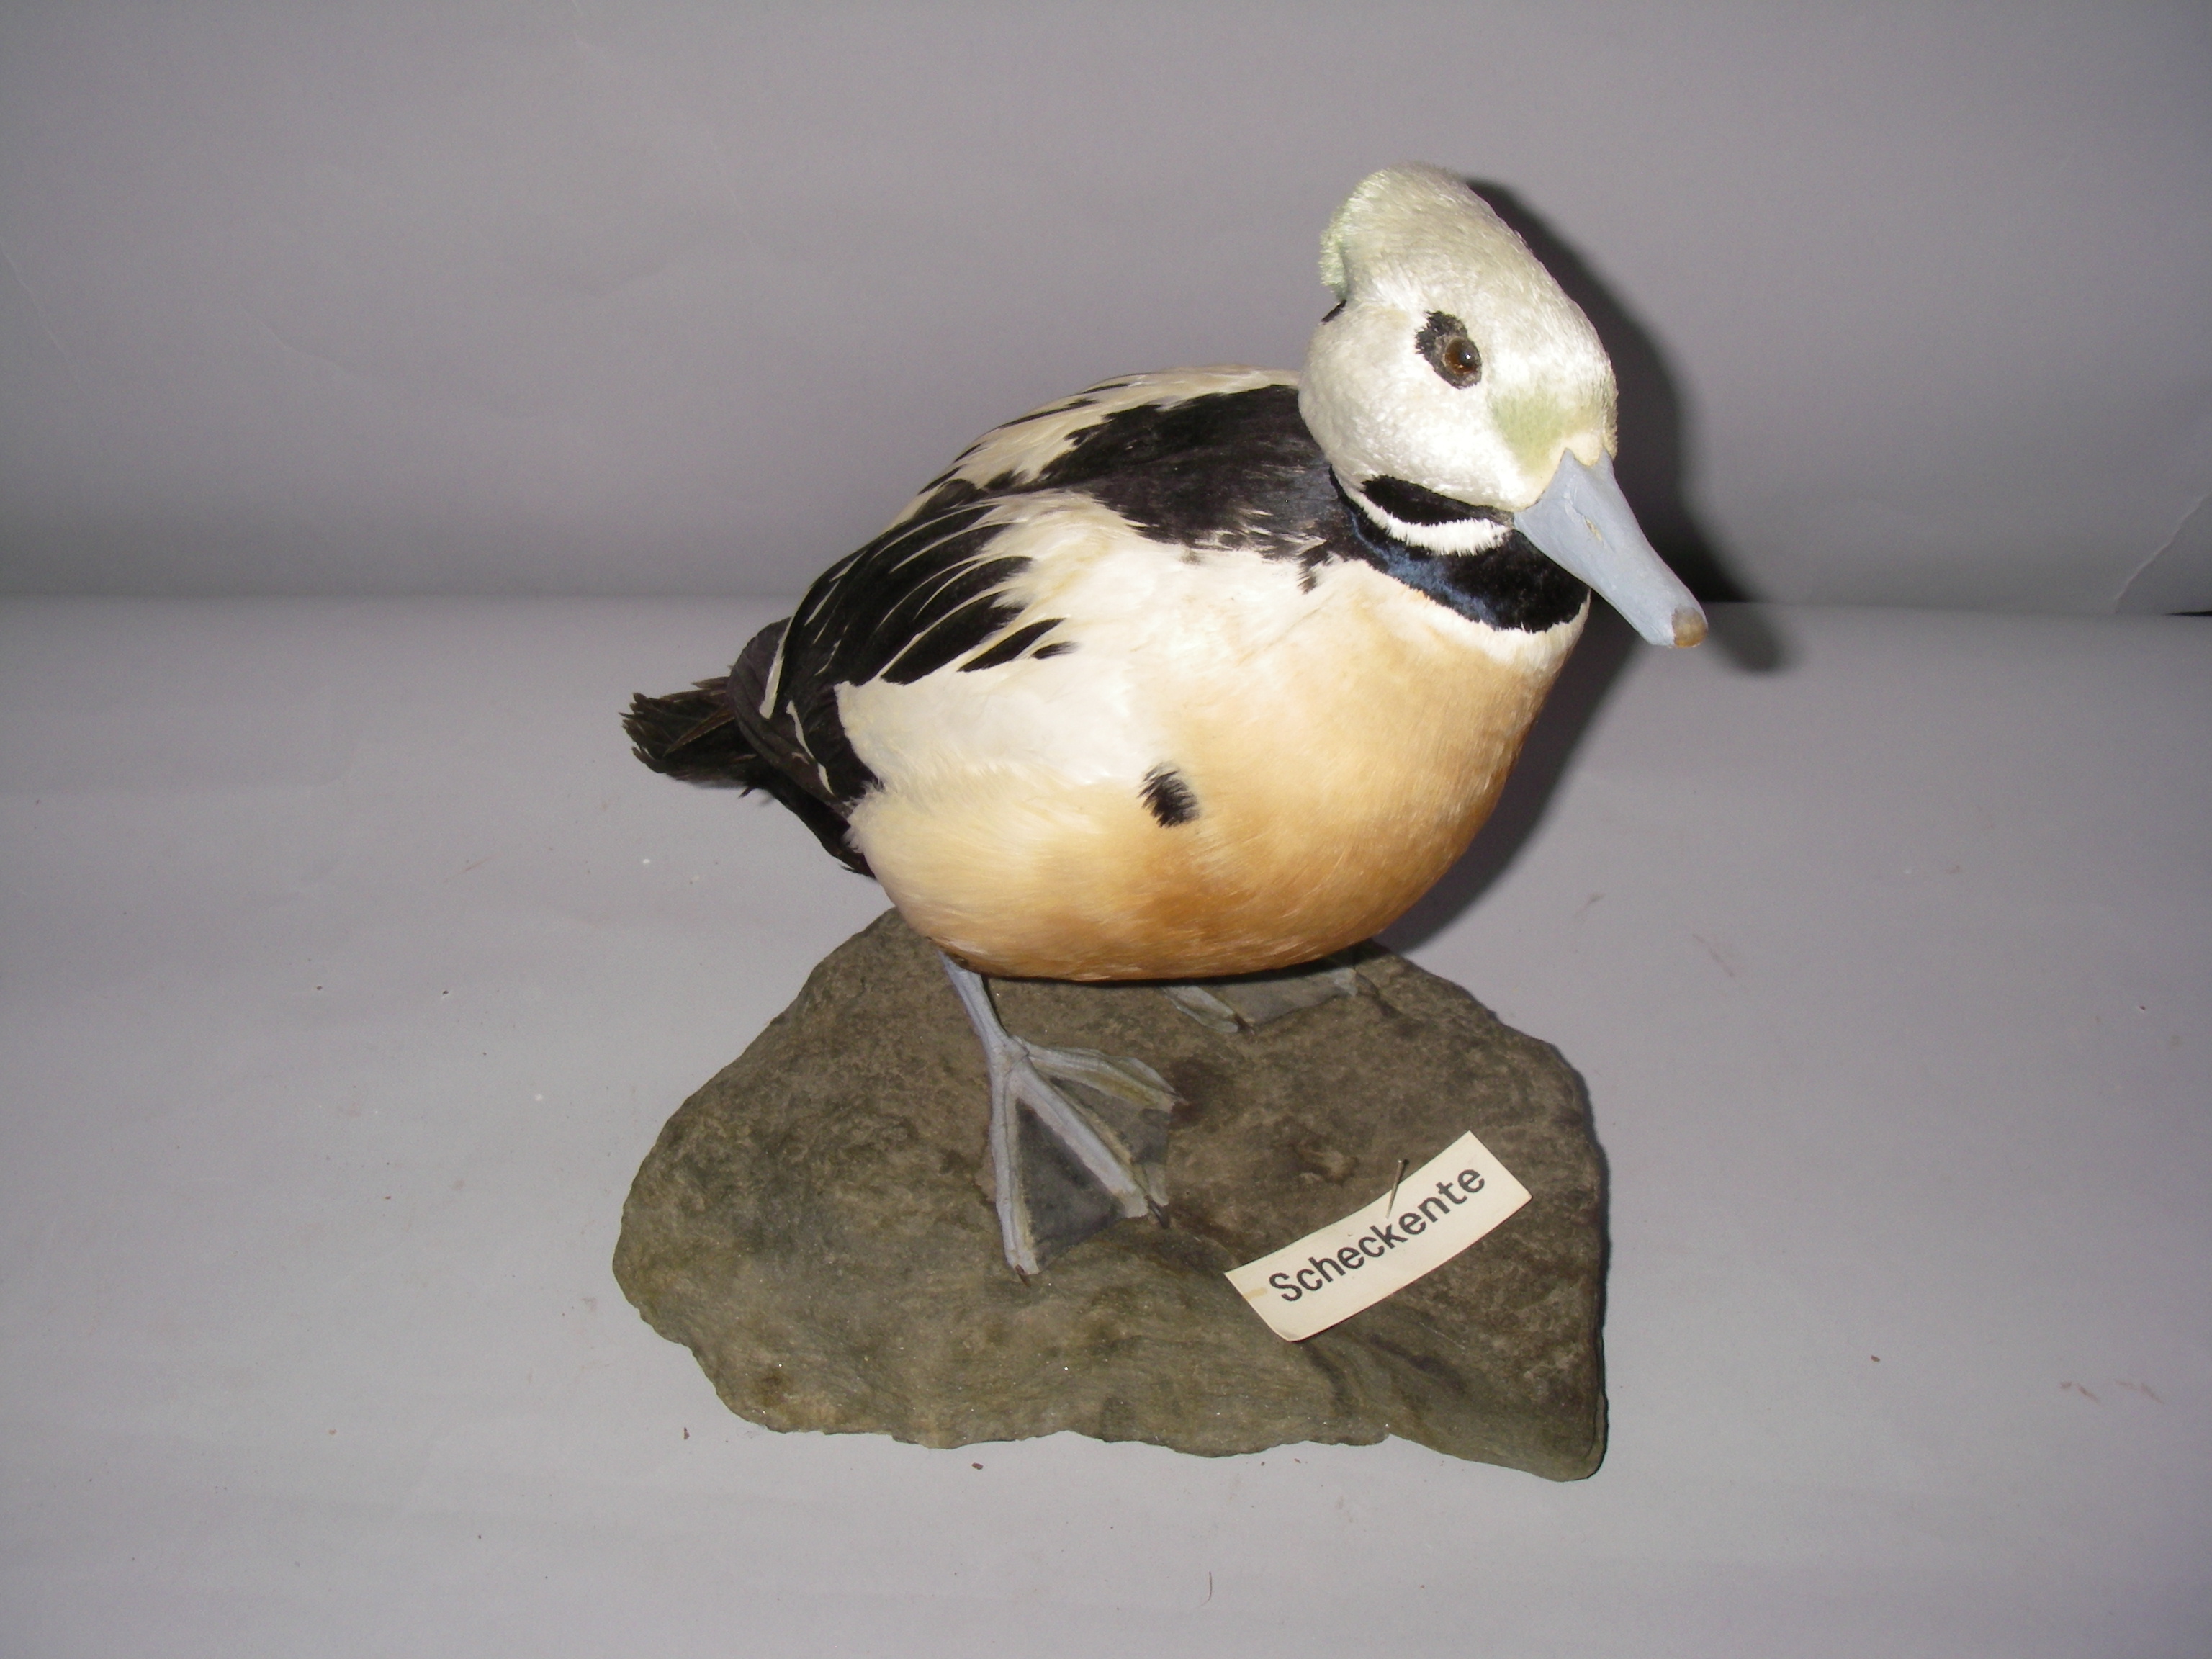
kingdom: Animalia
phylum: Chordata
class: Aves
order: Anseriformes
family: Anatidae
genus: Polysticta
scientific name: Polysticta stelleri
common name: Steller's eider
